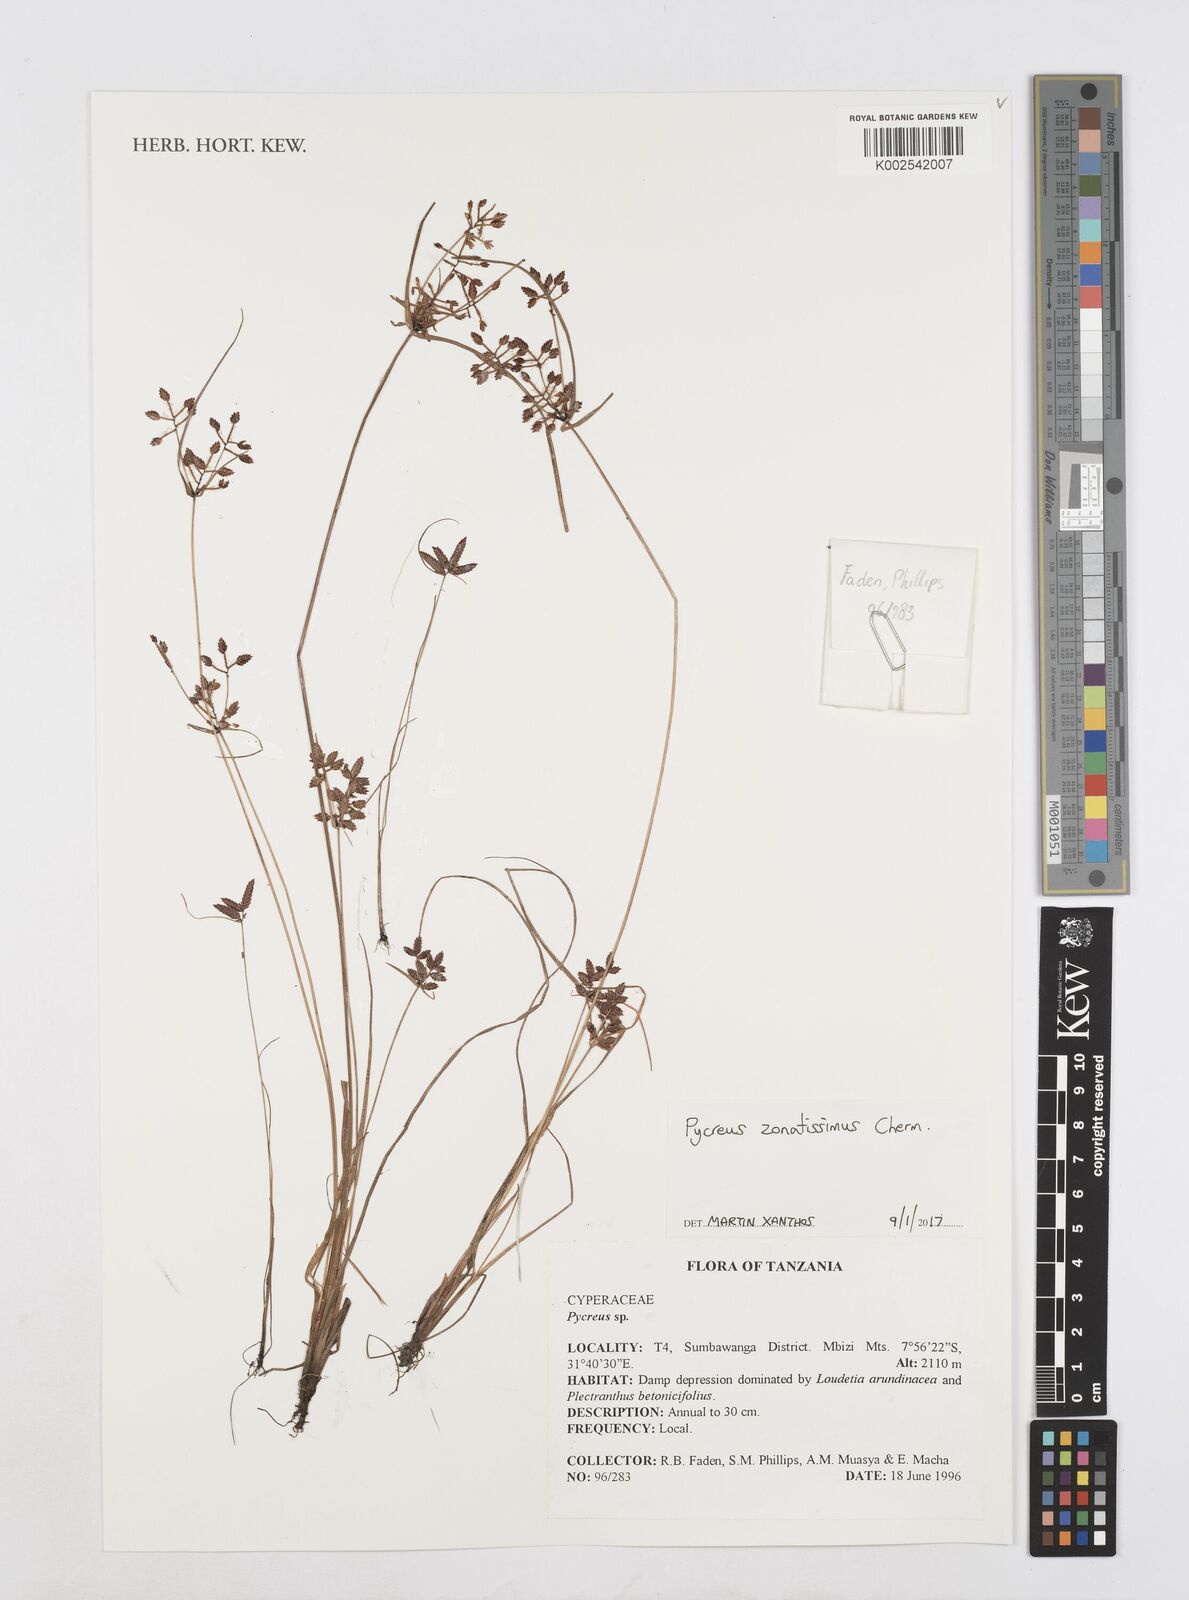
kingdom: Plantae
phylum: Tracheophyta
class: Liliopsida
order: Poales
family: Cyperaceae
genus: Cyperus
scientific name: Cyperus zonatissimus
